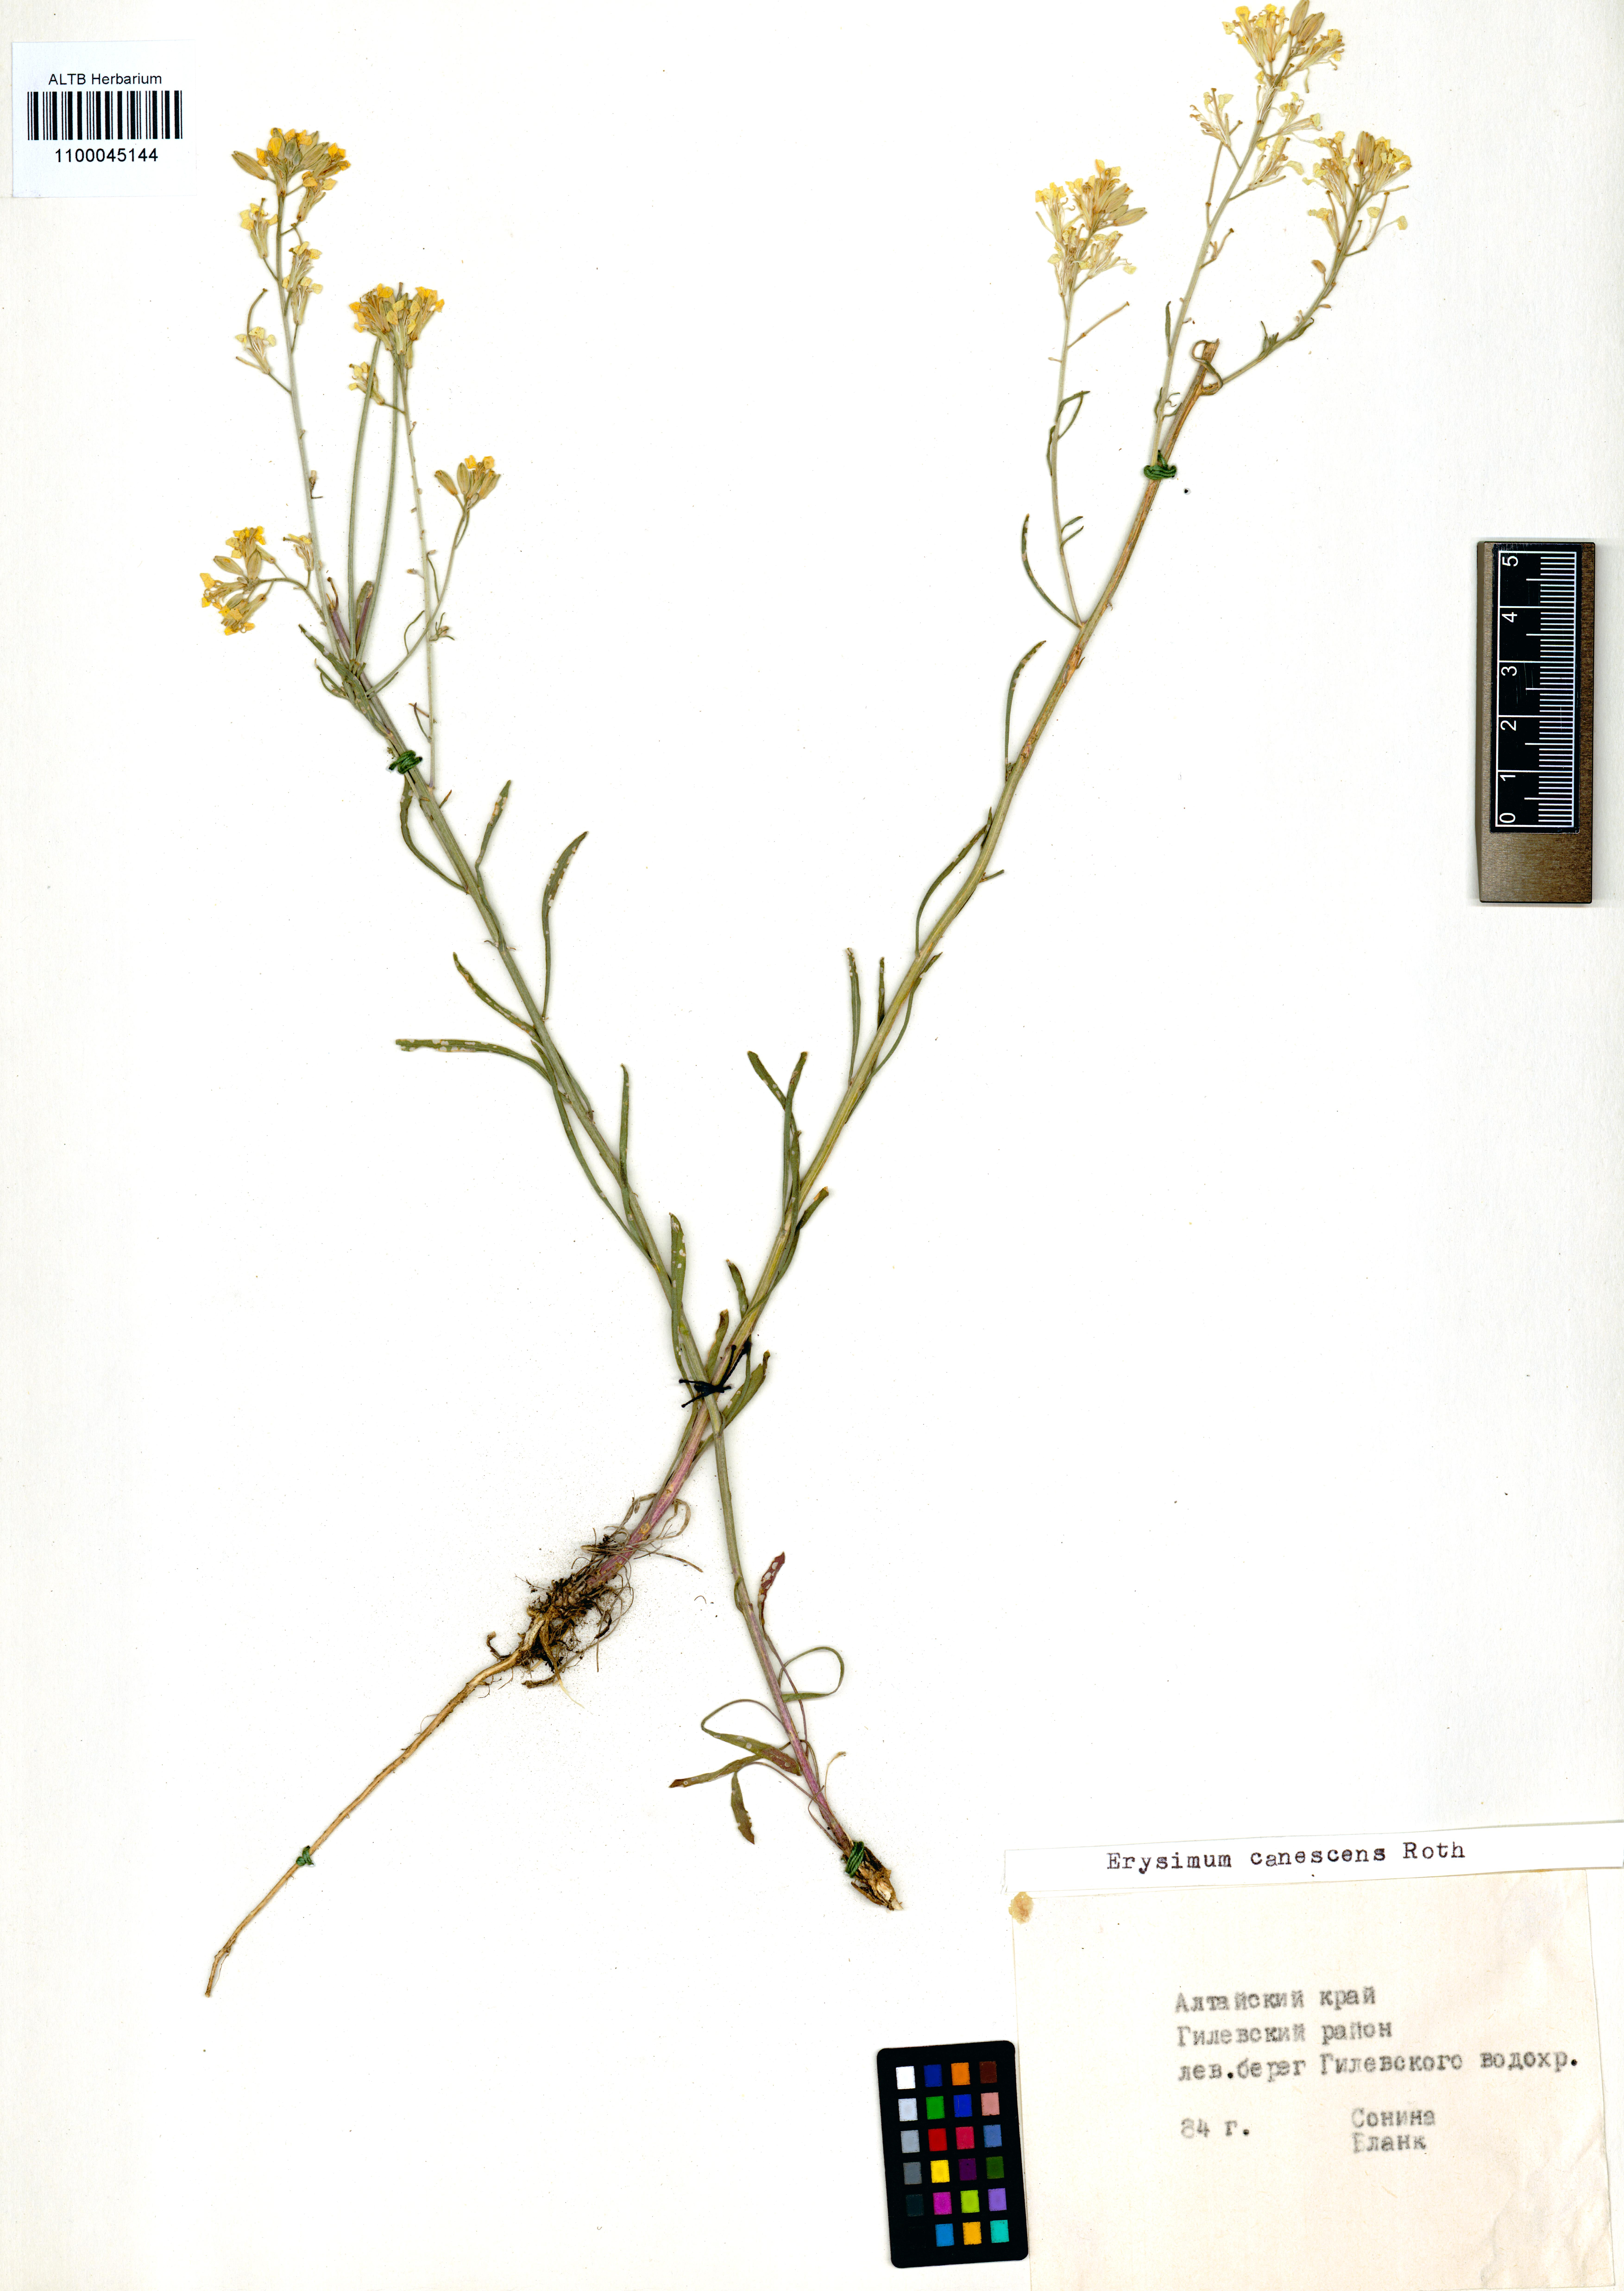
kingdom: Plantae
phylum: Tracheophyta
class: Magnoliopsida
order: Brassicales
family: Brassicaceae
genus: Erysimum
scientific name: Erysimum canescens
